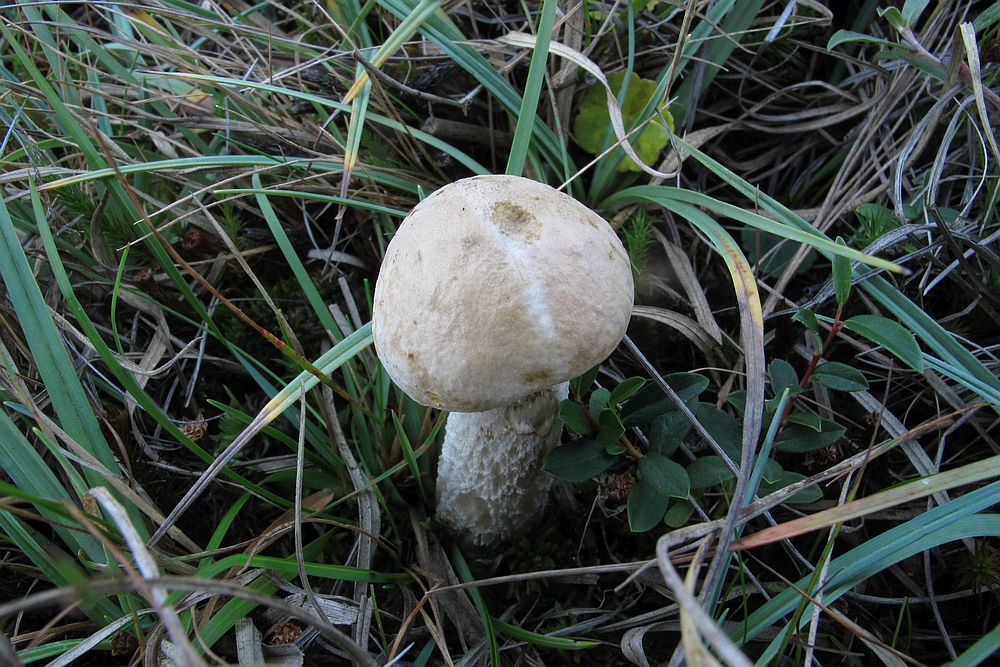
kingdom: Fungi
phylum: Basidiomycota
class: Agaricomycetes
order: Boletales
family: Boletaceae
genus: Leccinum
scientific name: Leccinum scabrum
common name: hvid skælrørhat
